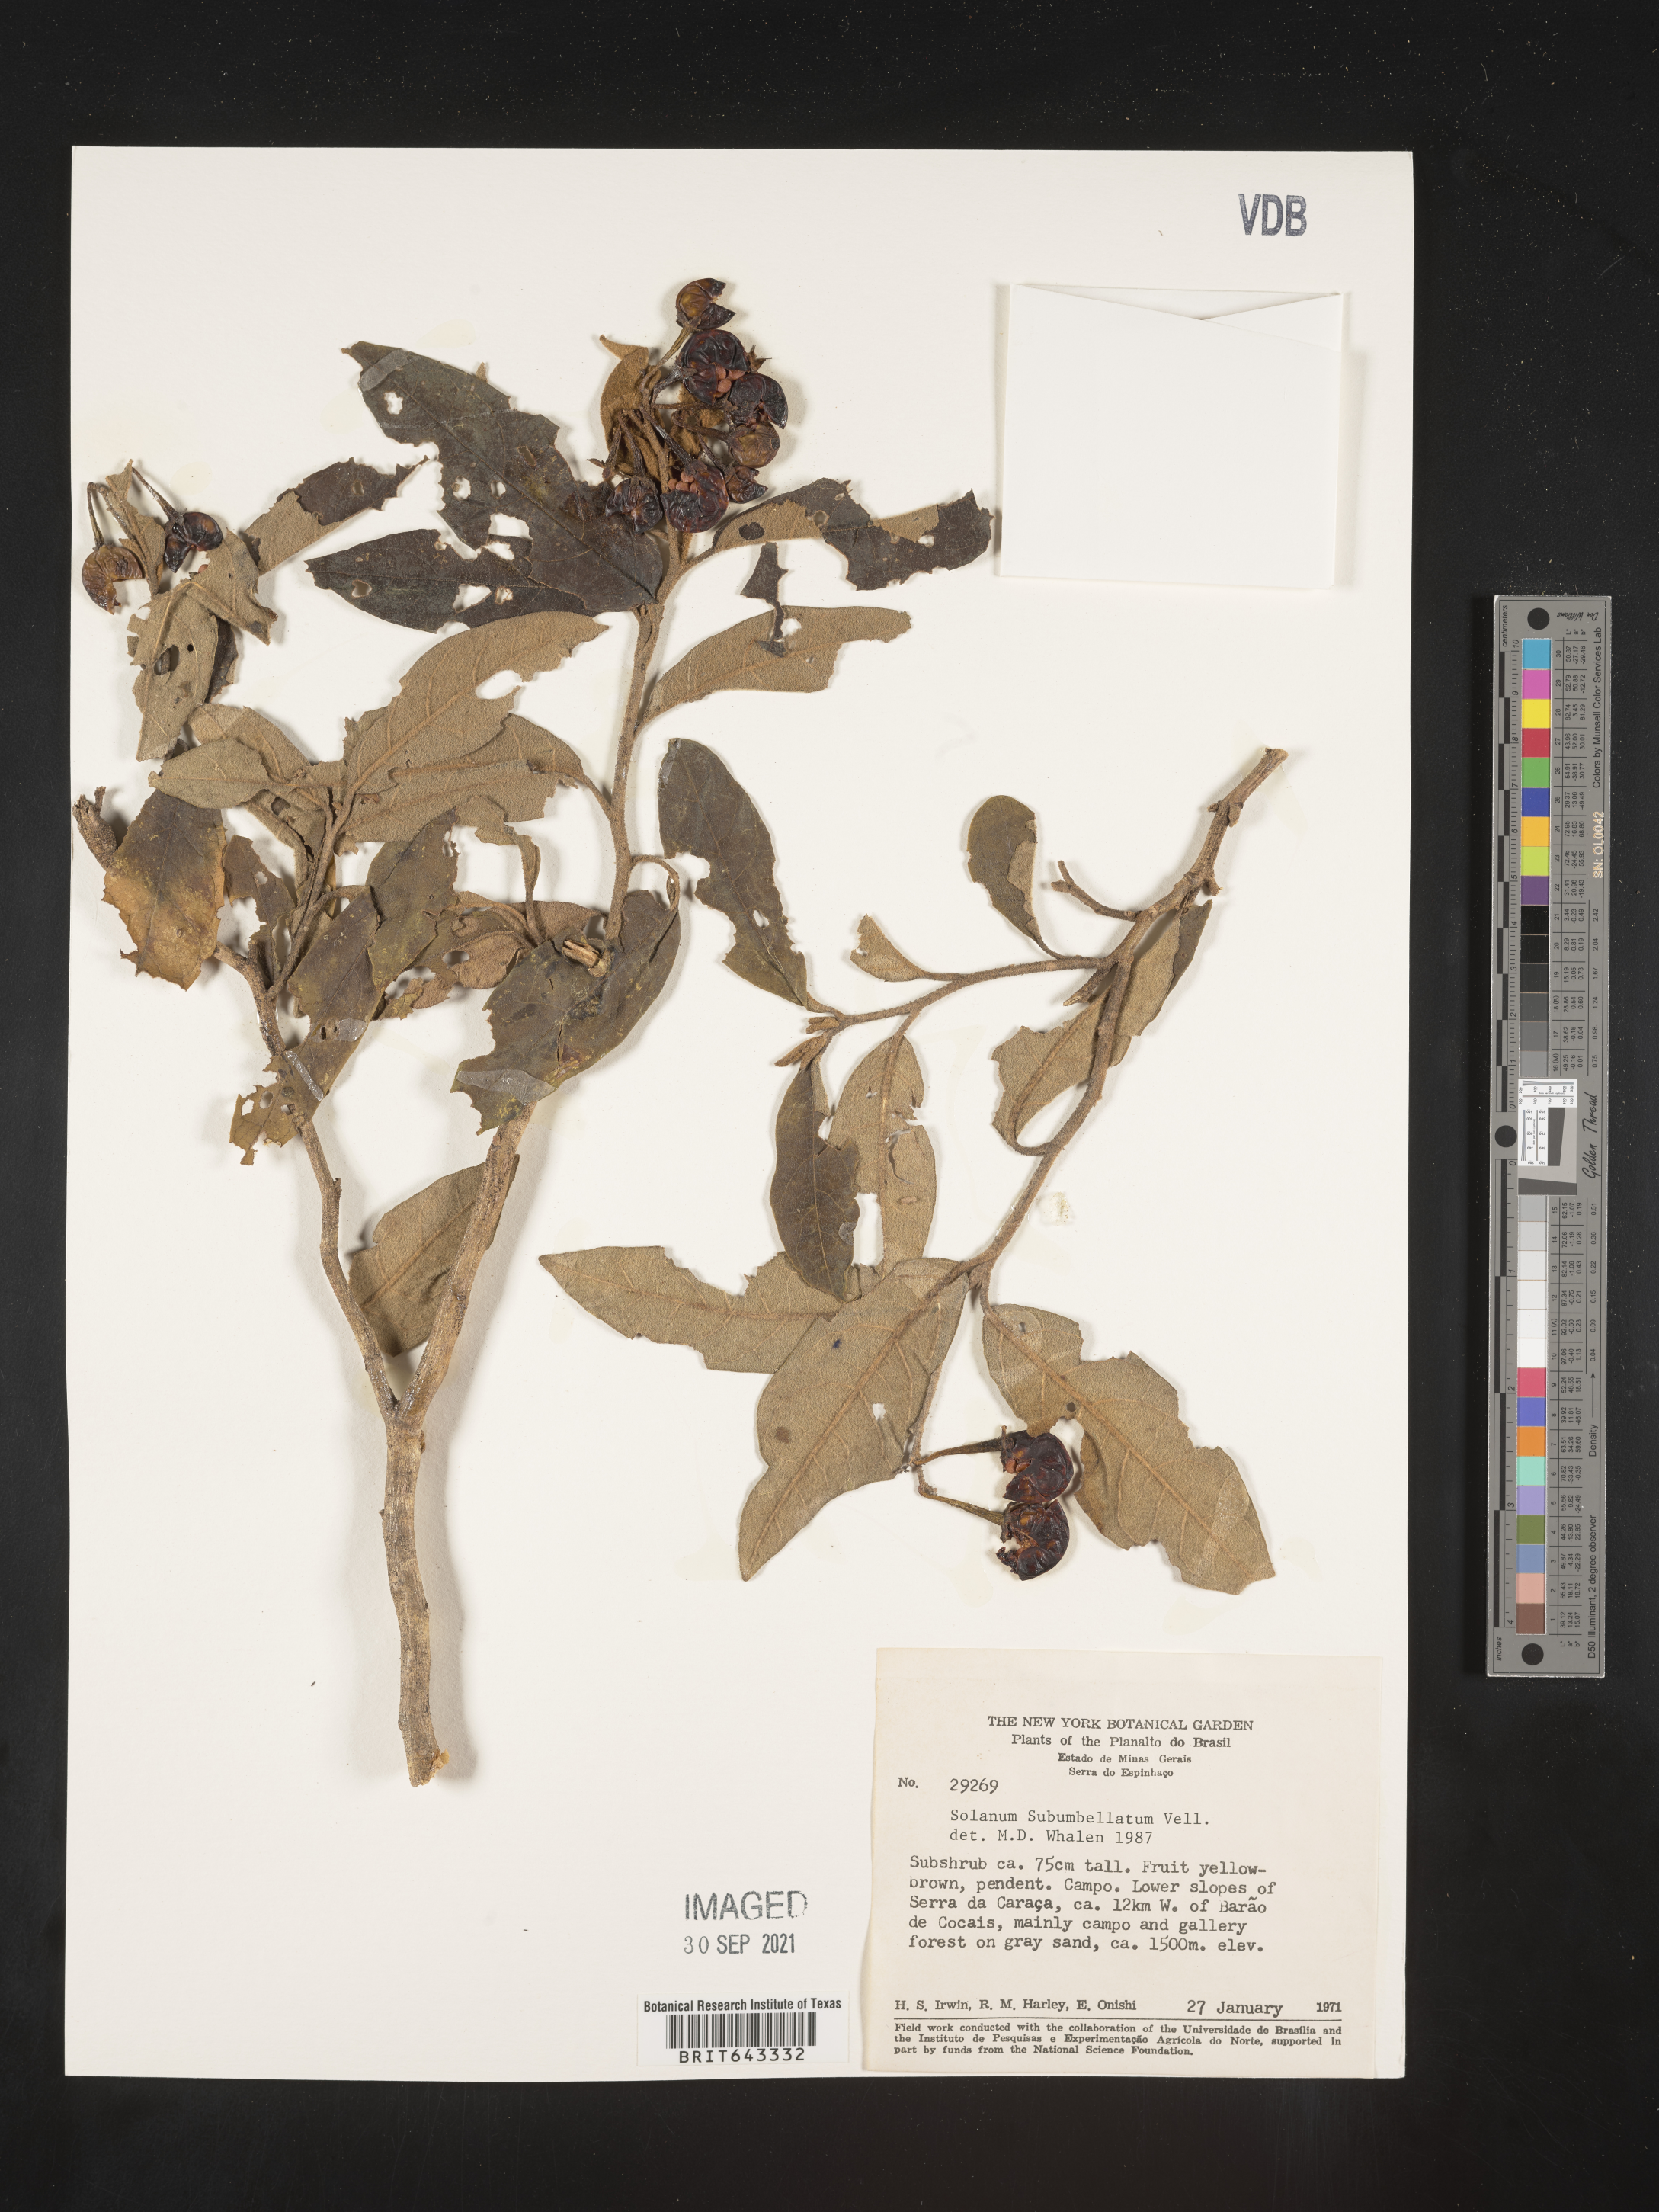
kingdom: Plantae
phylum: Tracheophyta
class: Magnoliopsida
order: Solanales
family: Solanaceae
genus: Solanum
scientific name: Solanum
